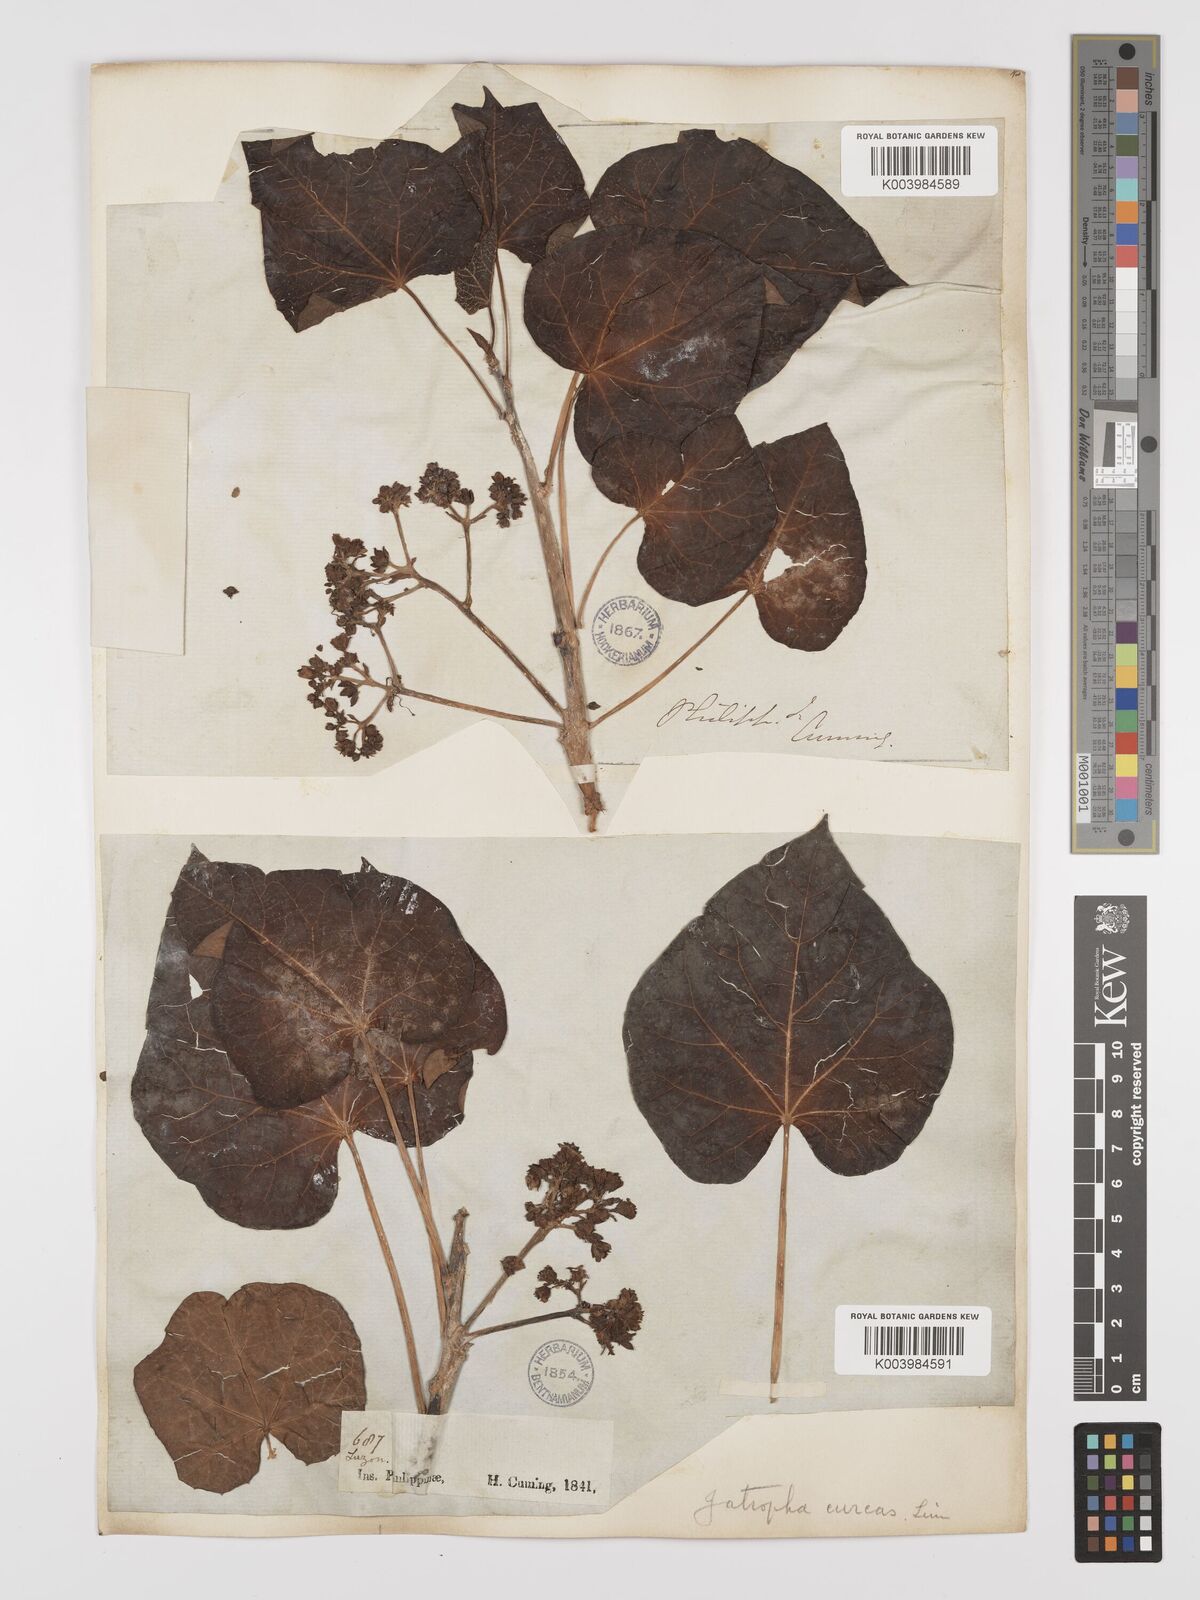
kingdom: Plantae
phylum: Tracheophyta
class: Magnoliopsida
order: Malpighiales
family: Euphorbiaceae
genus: Jatropha
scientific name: Jatropha curcas
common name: Barbados nut
